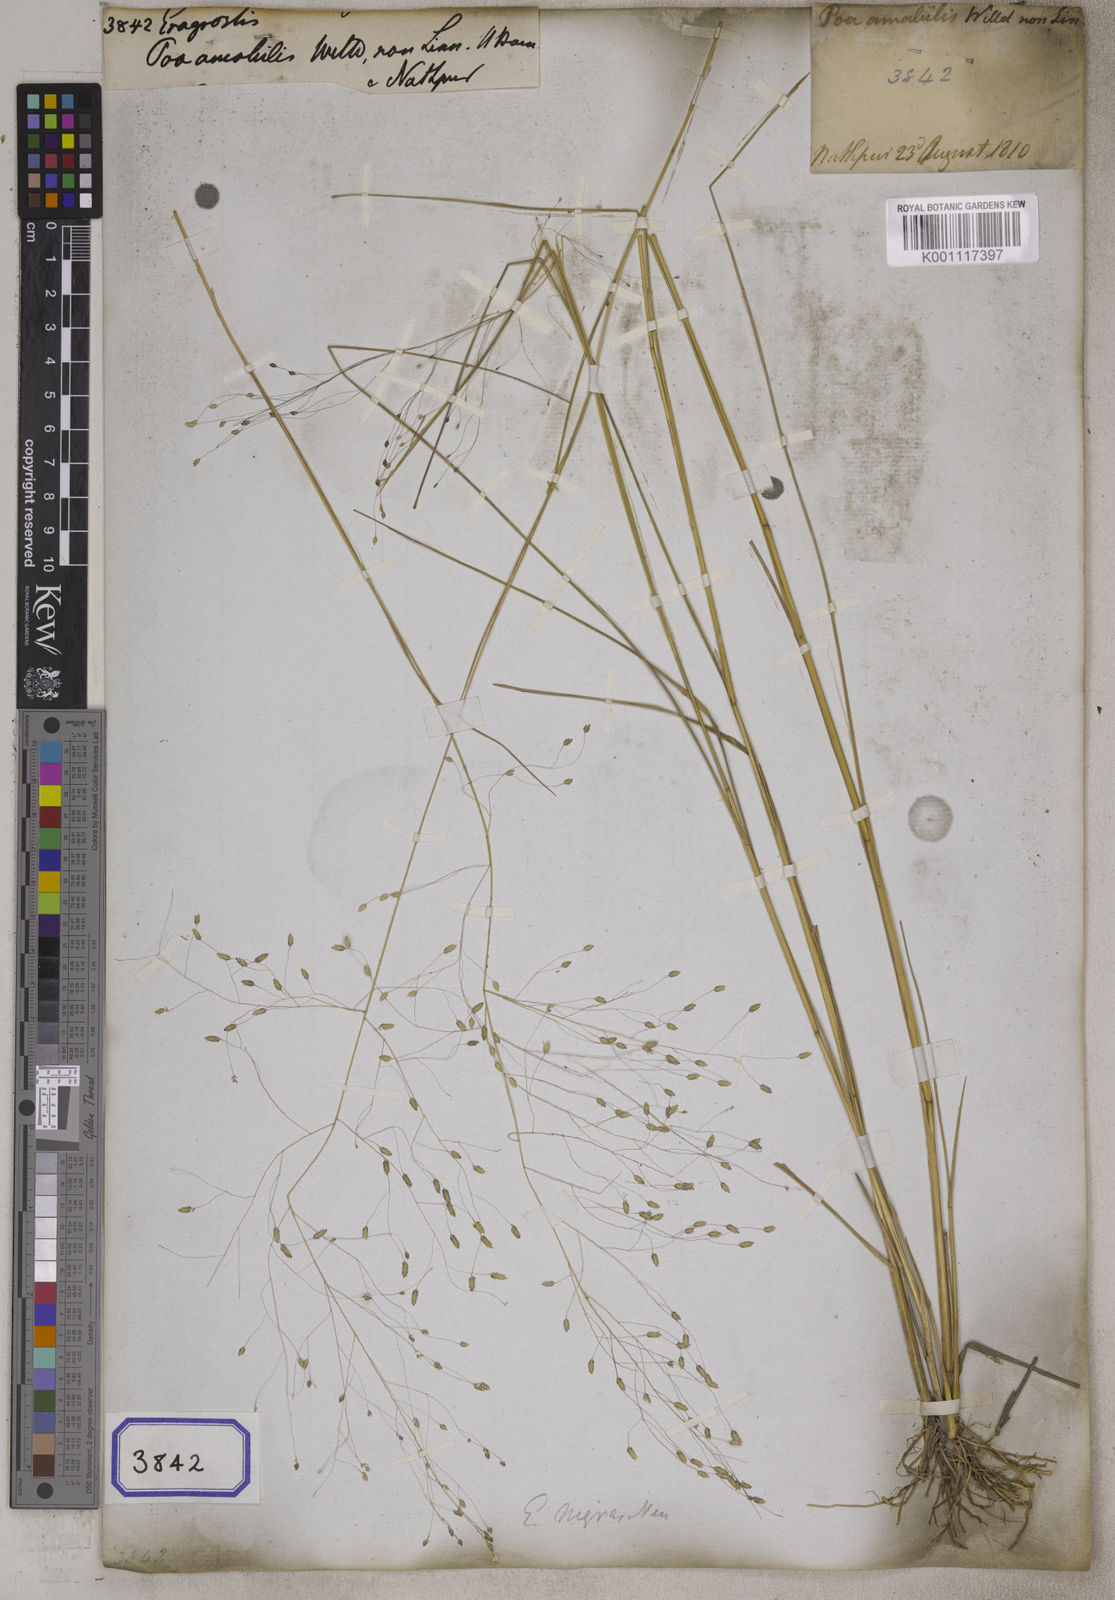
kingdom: Plantae
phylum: Tracheophyta
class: Liliopsida
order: Poales
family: Poaceae
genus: Eragrostis
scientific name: Eragrostis
